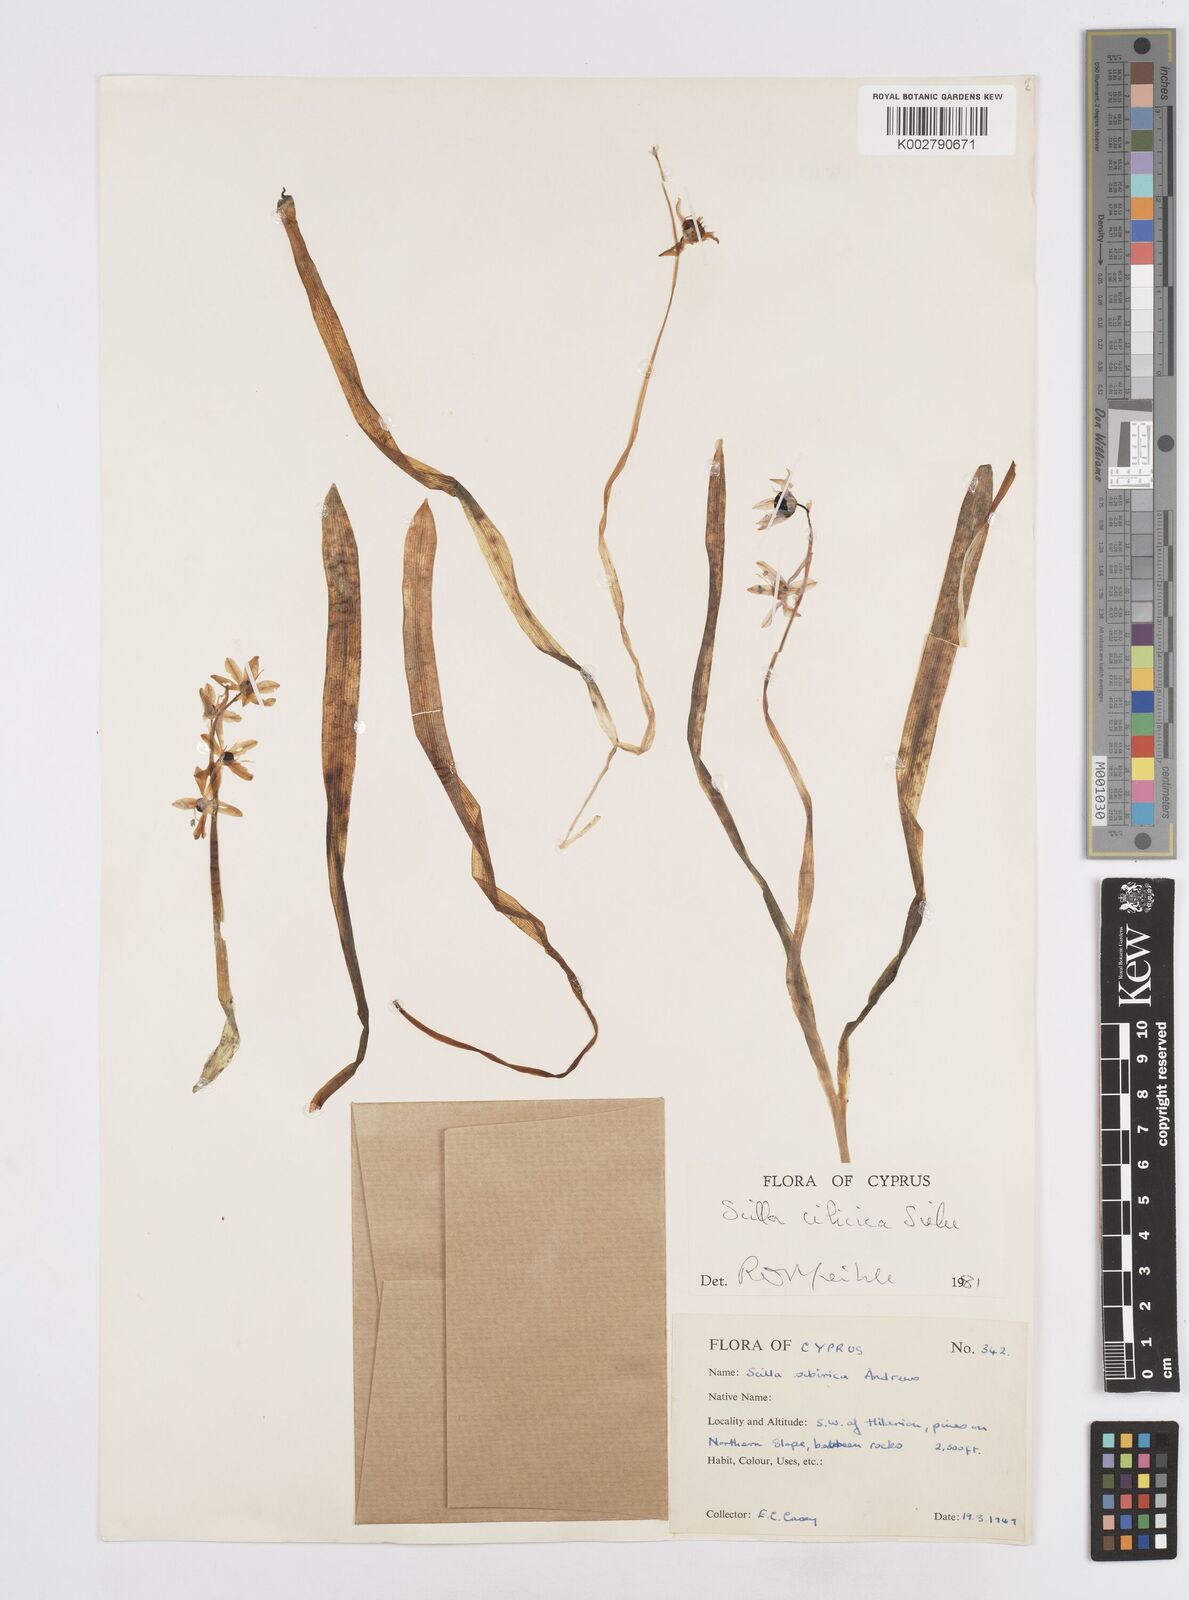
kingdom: Plantae
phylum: Tracheophyta
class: Liliopsida
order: Asparagales
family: Asparagaceae
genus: Scilla
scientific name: Scilla siberica
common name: Siberian squill
